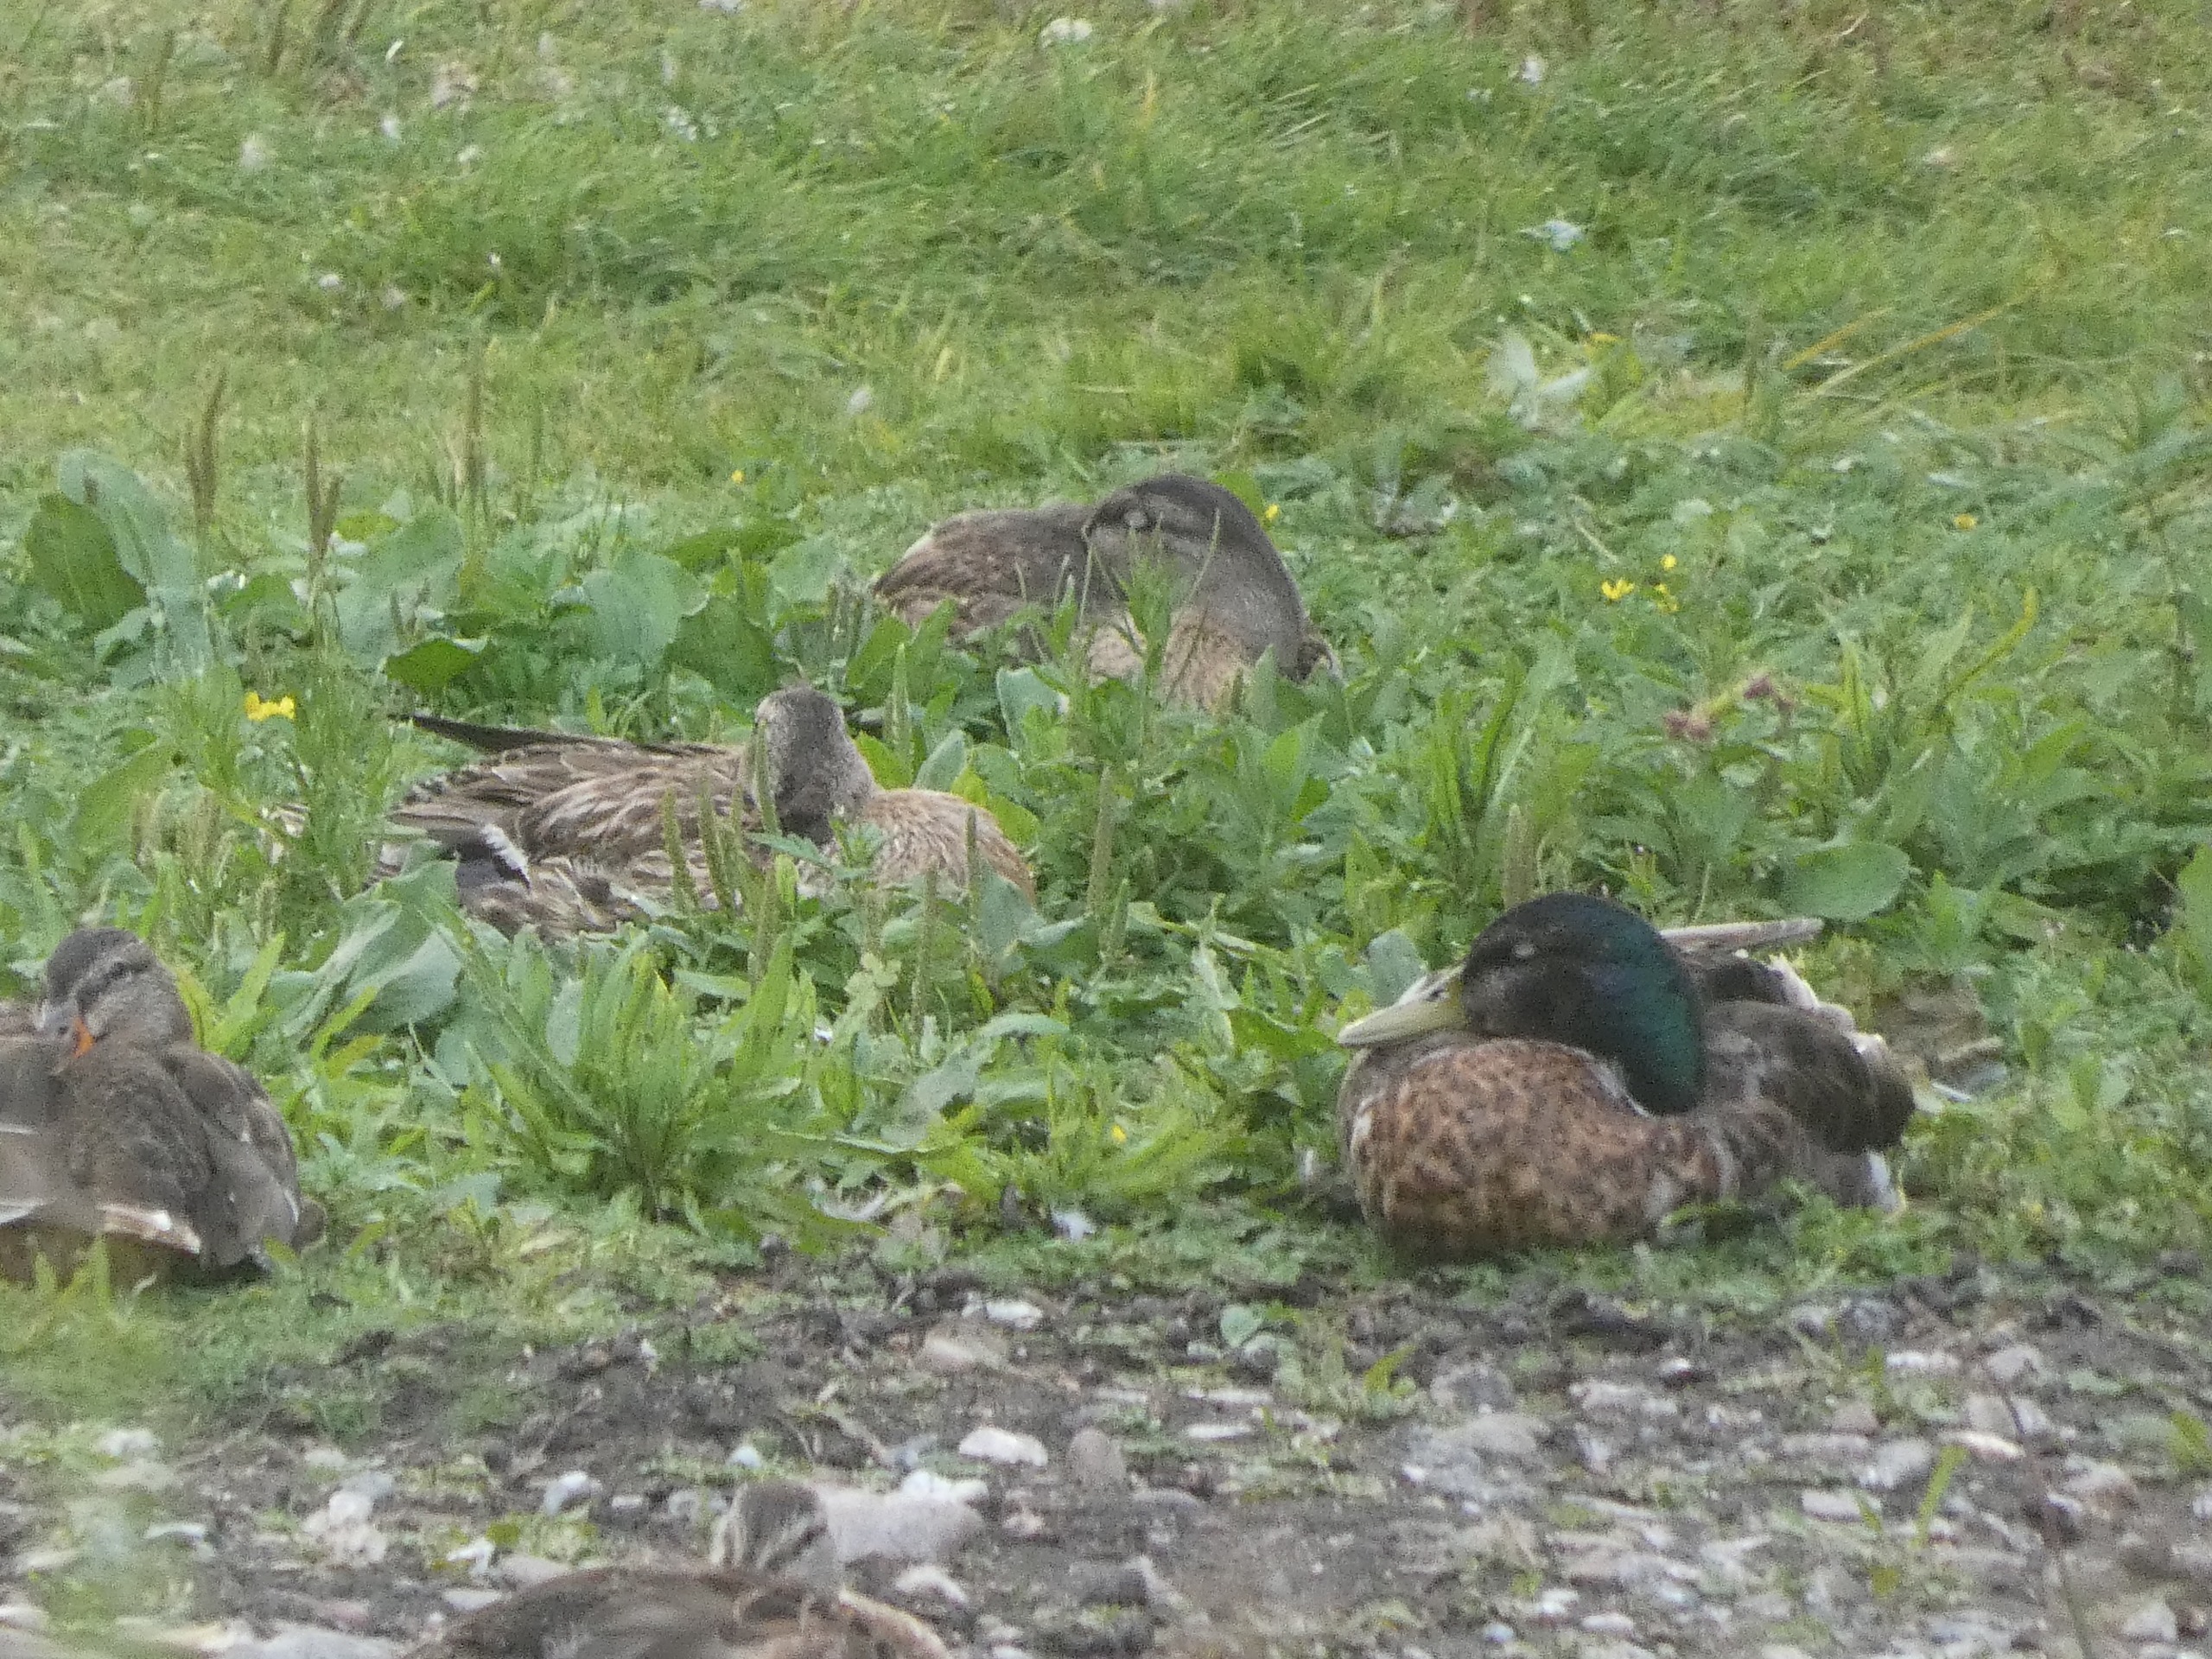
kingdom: Animalia
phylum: Chordata
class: Aves
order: Anseriformes
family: Anatidae
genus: Anas
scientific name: Anas platyrhynchos
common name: Gråand
